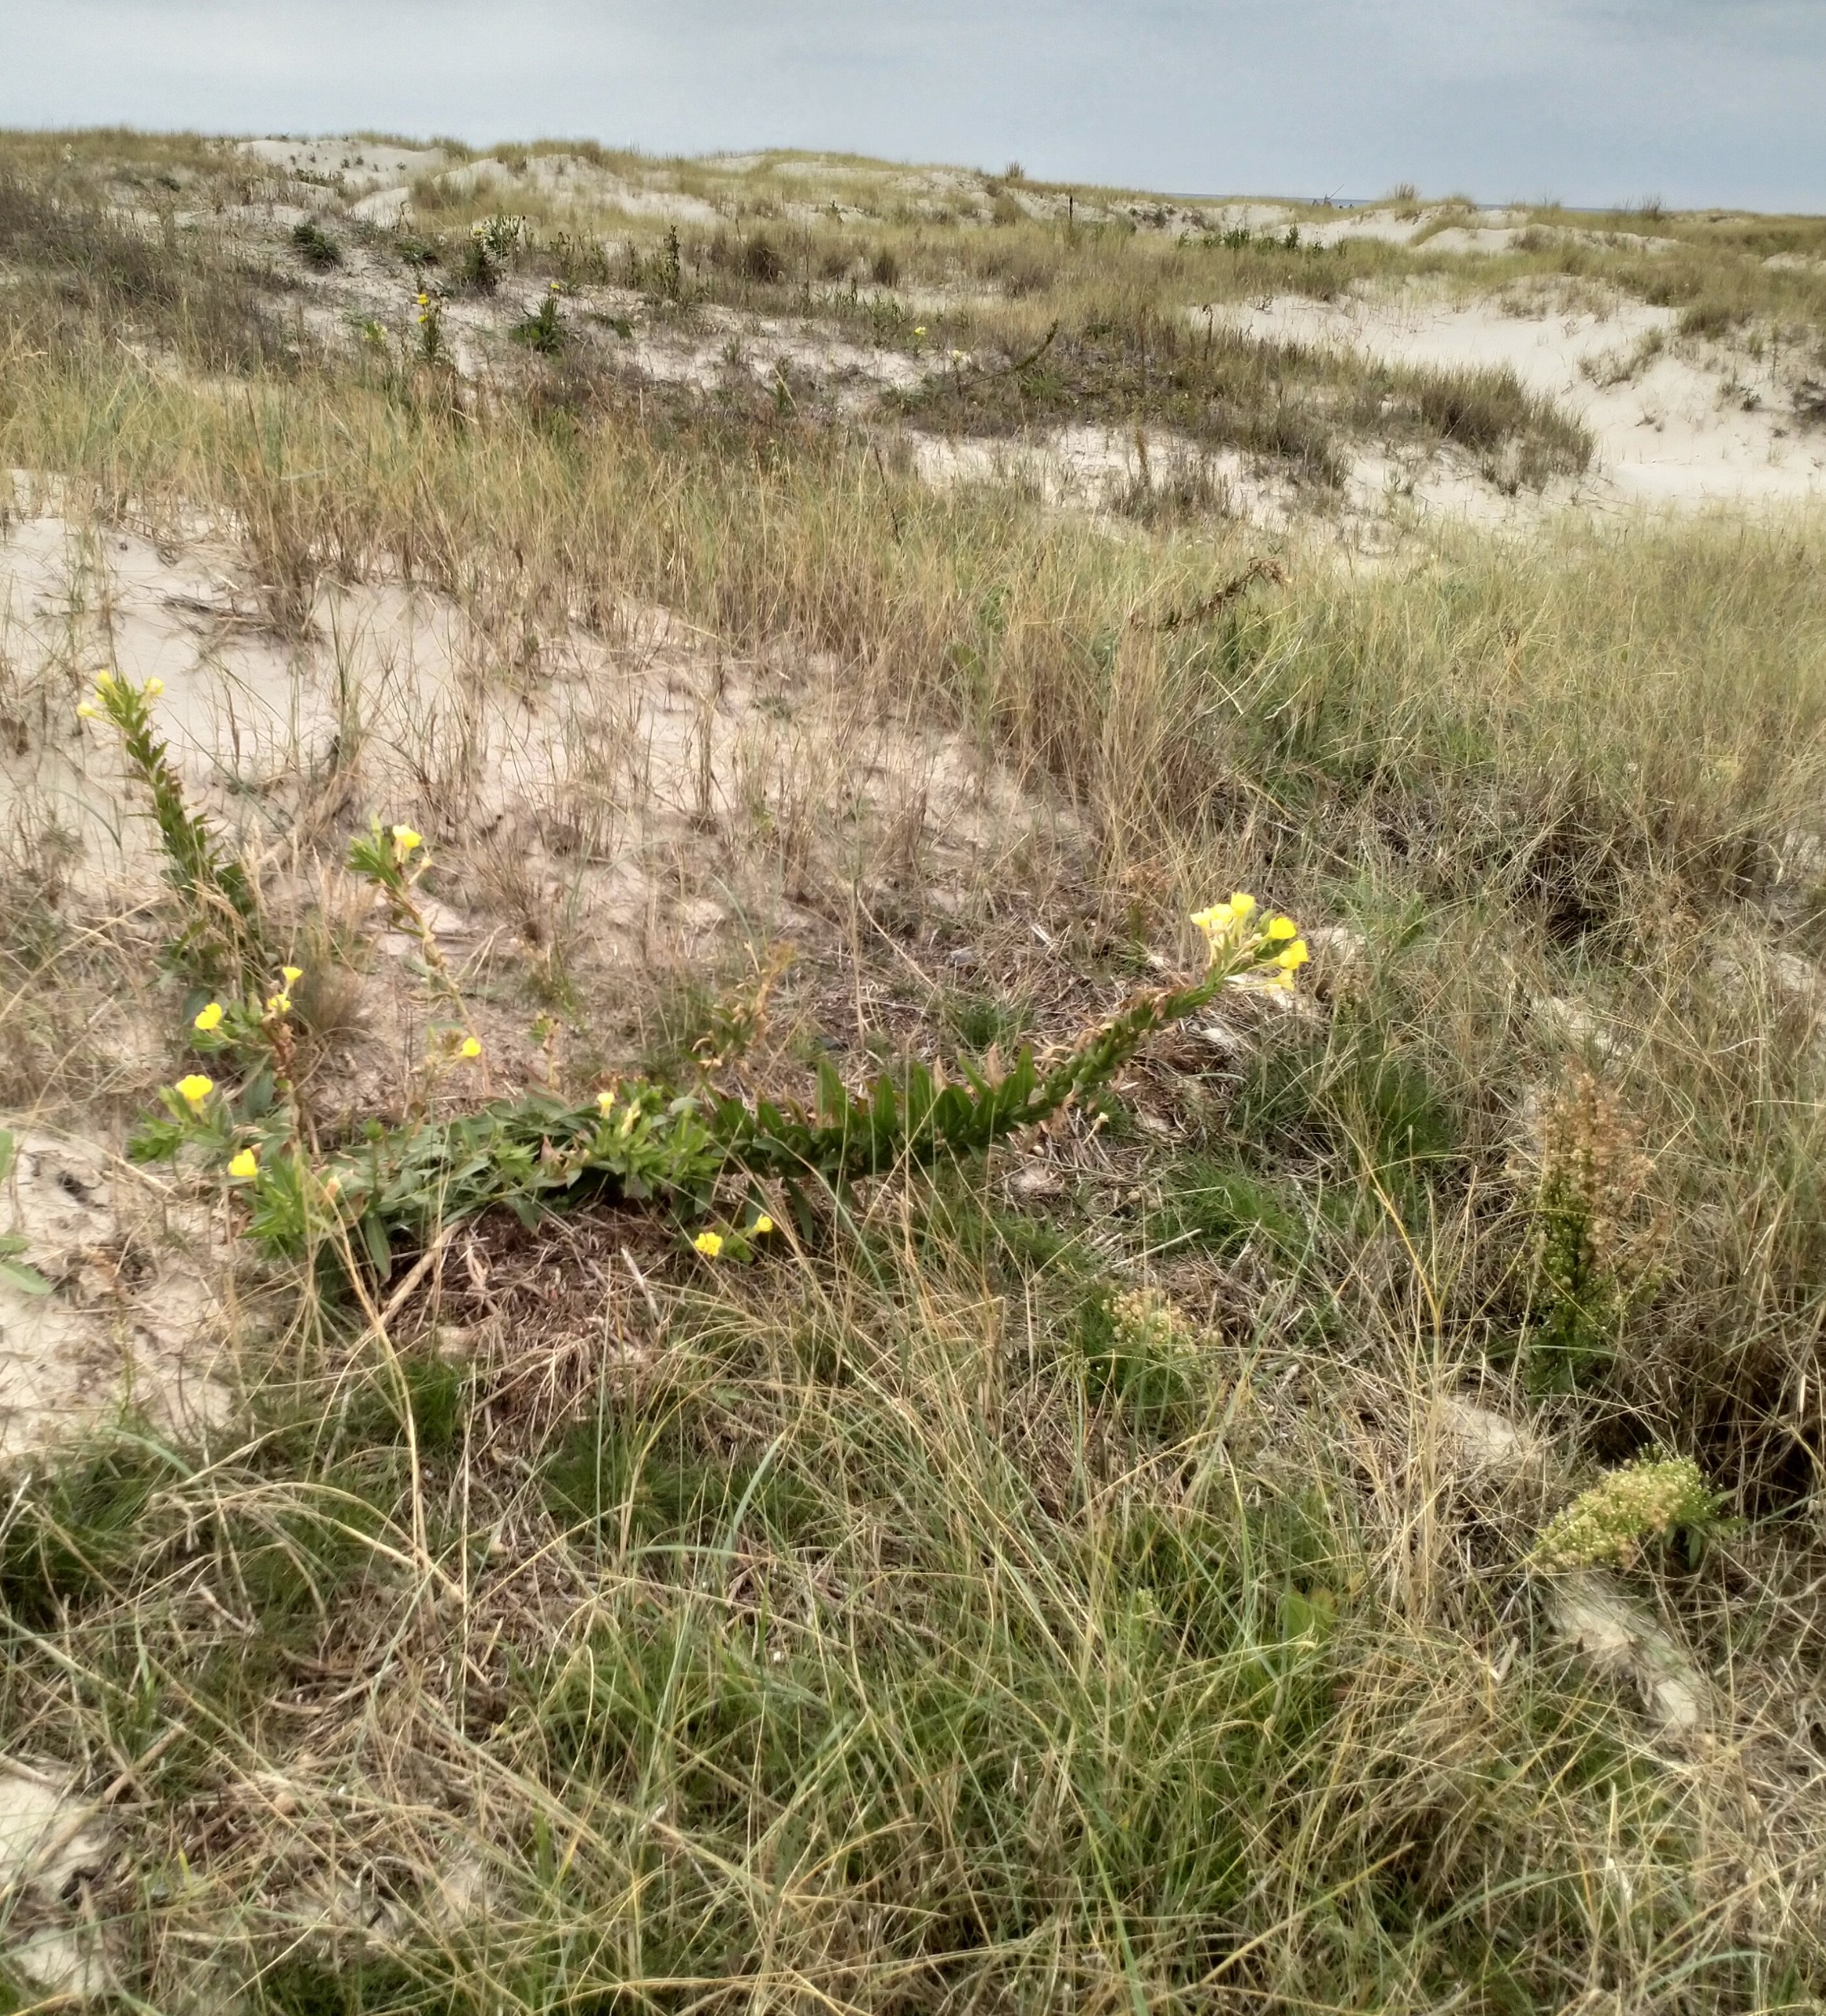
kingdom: Plantae
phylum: Tracheophyta
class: Magnoliopsida
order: Myrtales
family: Onagraceae
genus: Oenothera
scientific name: Oenothera ammophila
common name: Klit-natlys
